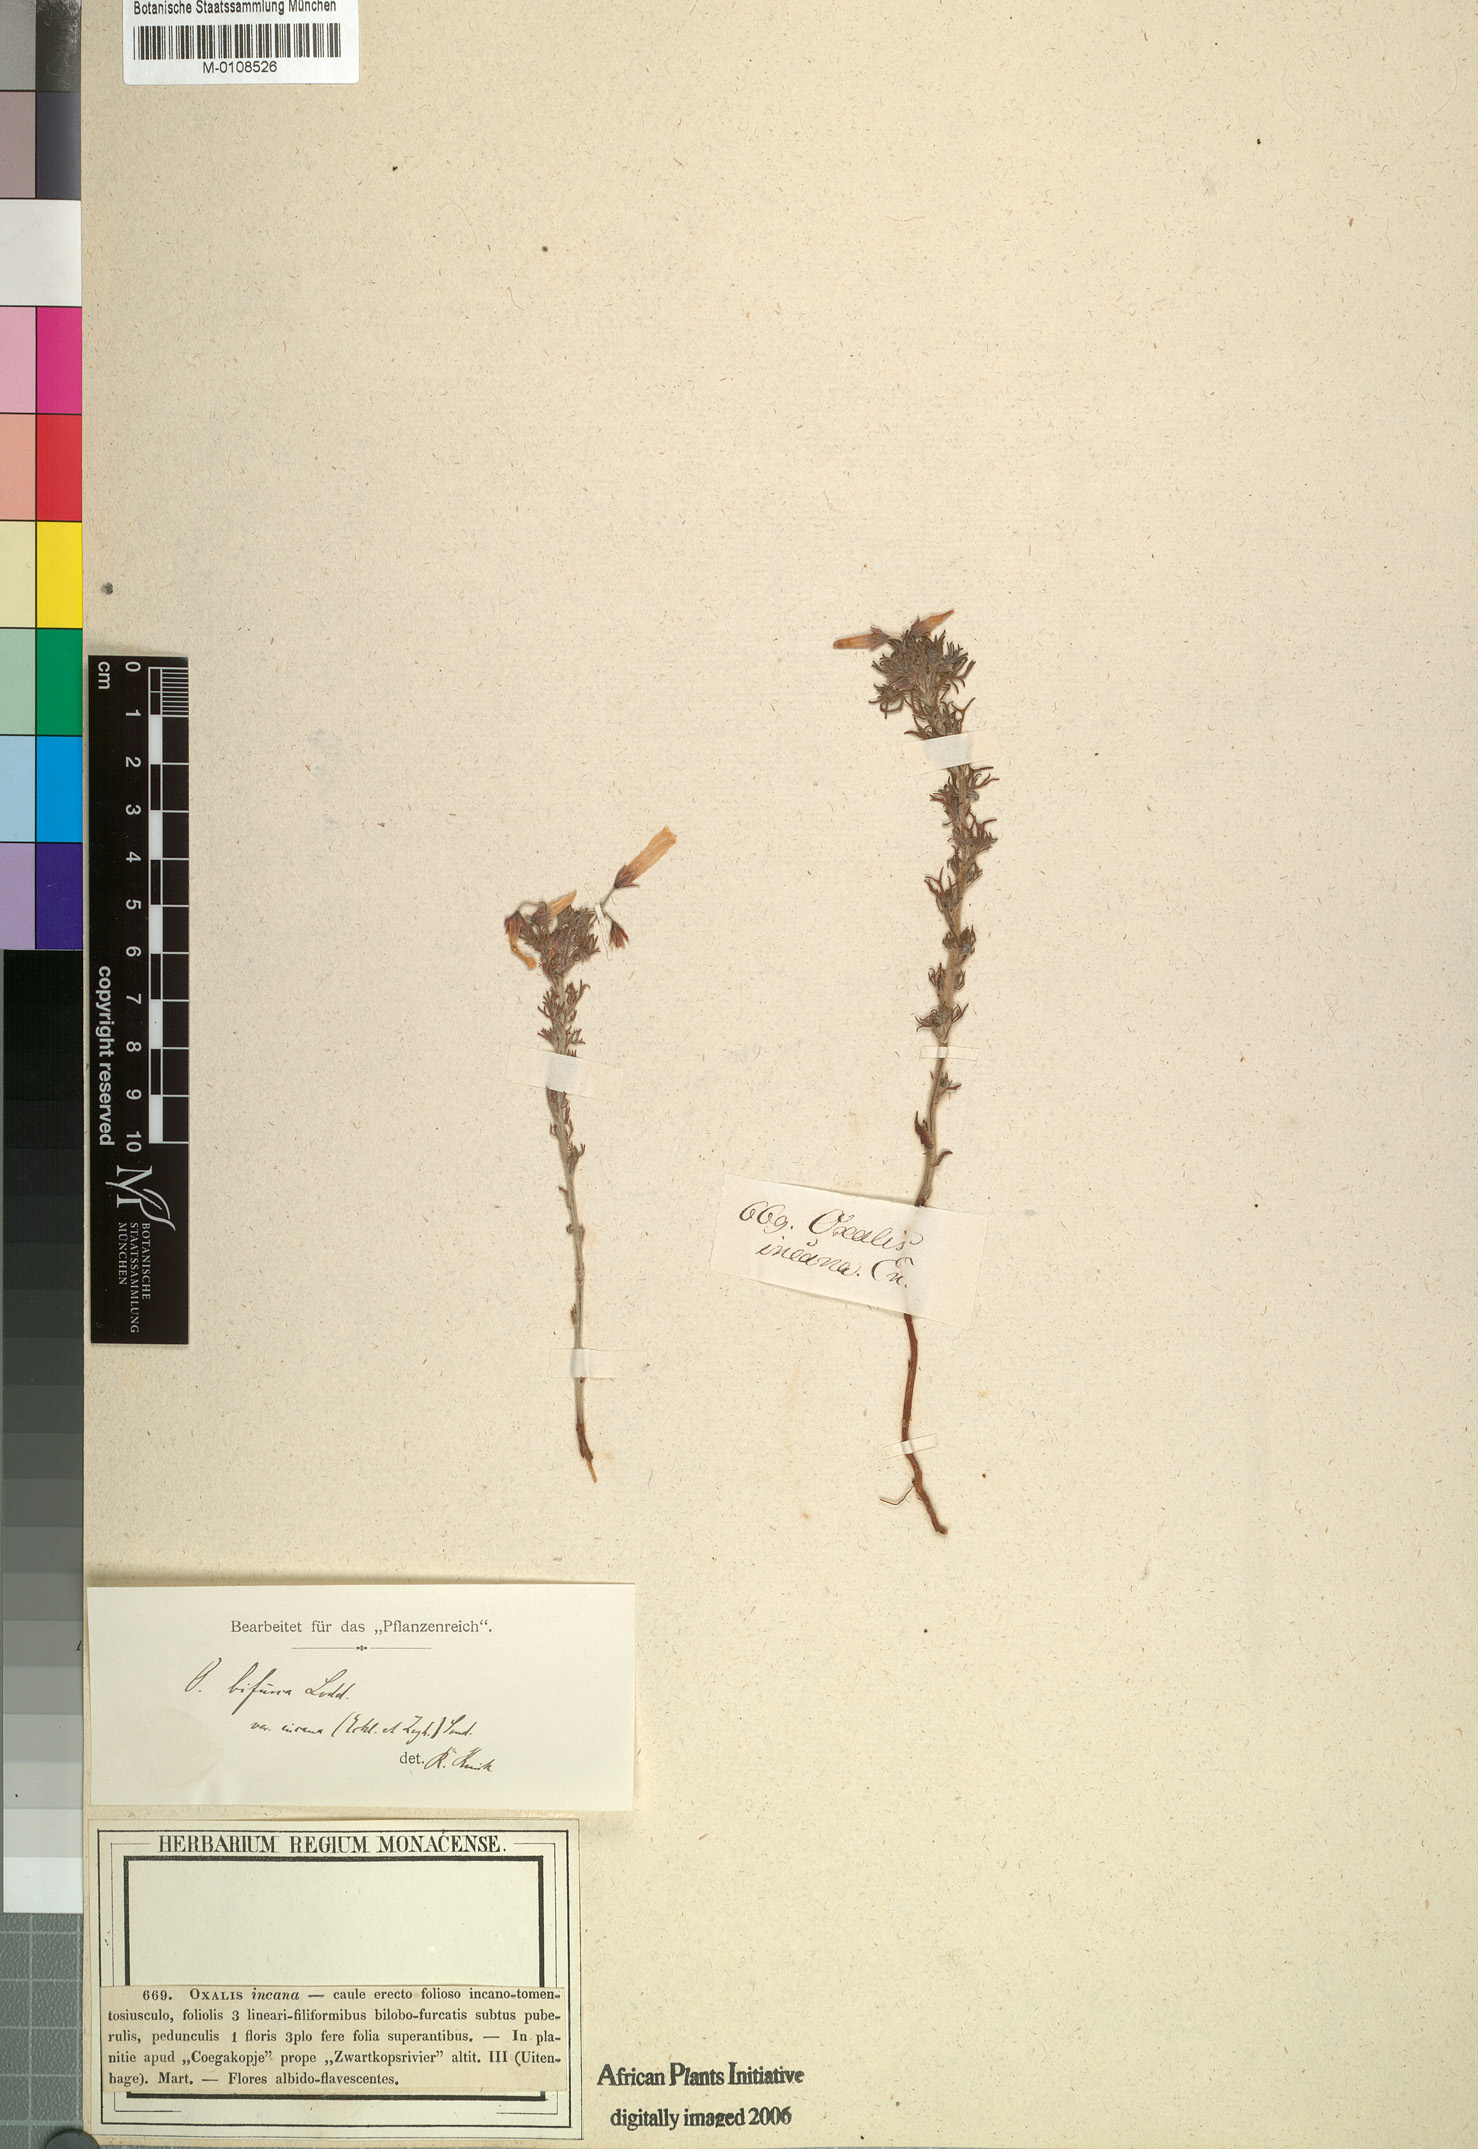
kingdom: Plantae
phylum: Tracheophyta
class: Magnoliopsida
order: Oxalidales
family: Oxalidaceae
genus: Oxalis
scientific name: Oxalis bifurca
